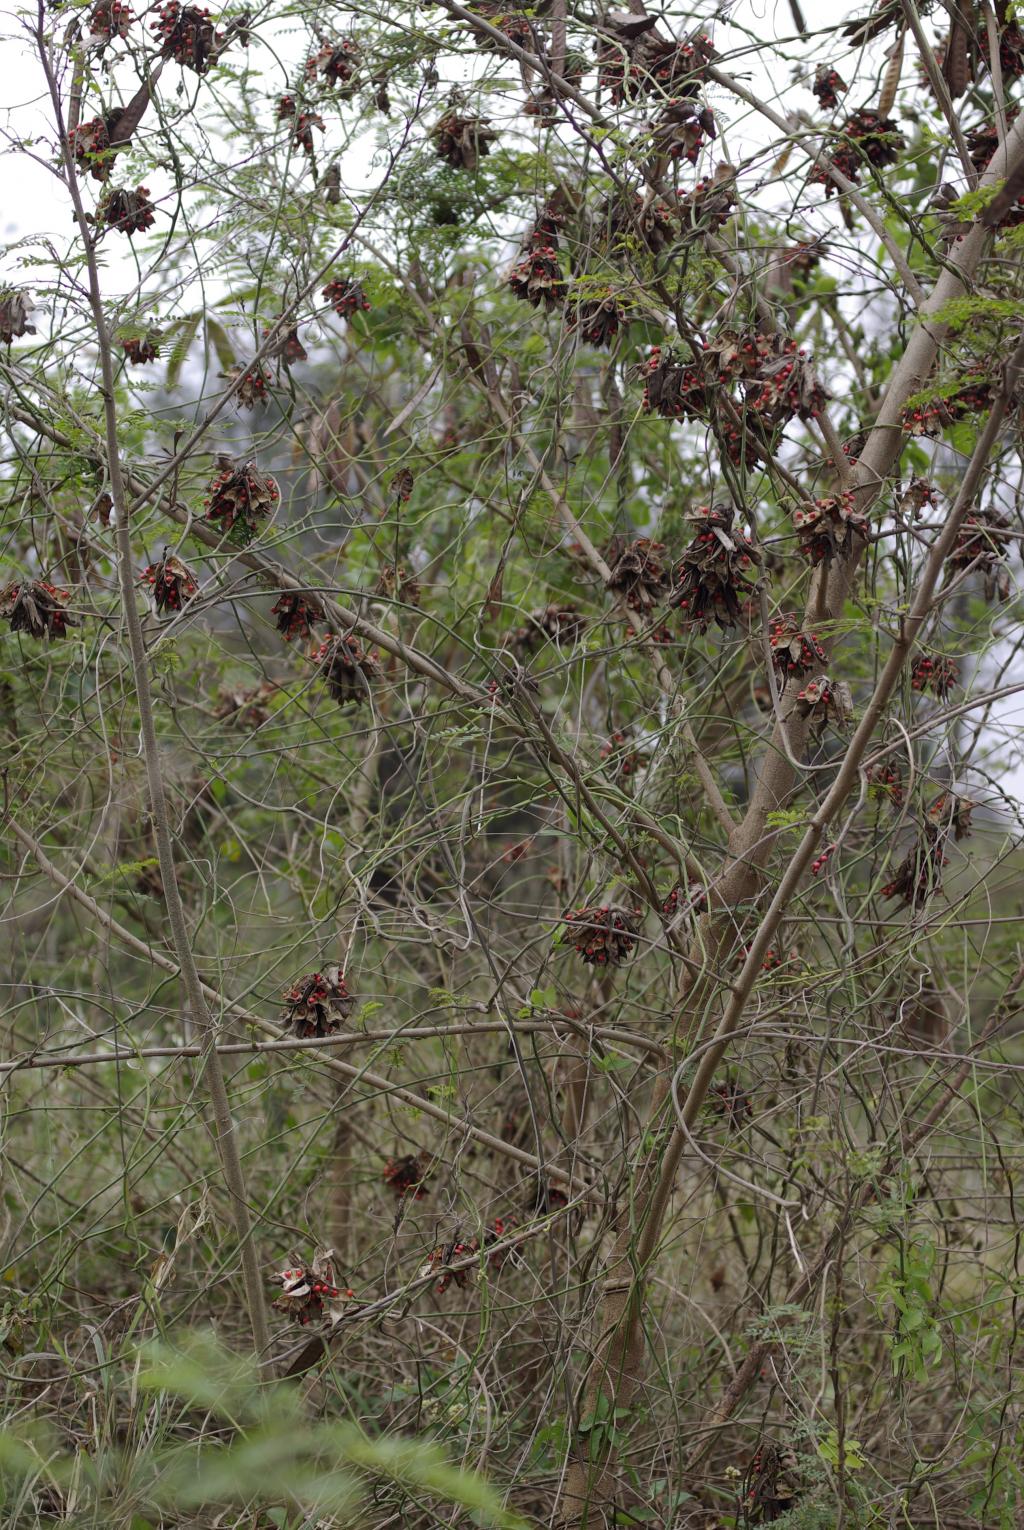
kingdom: Plantae
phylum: Tracheophyta
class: Magnoliopsida
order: Fabales
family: Fabaceae
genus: Abrus
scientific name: Abrus precatorius
